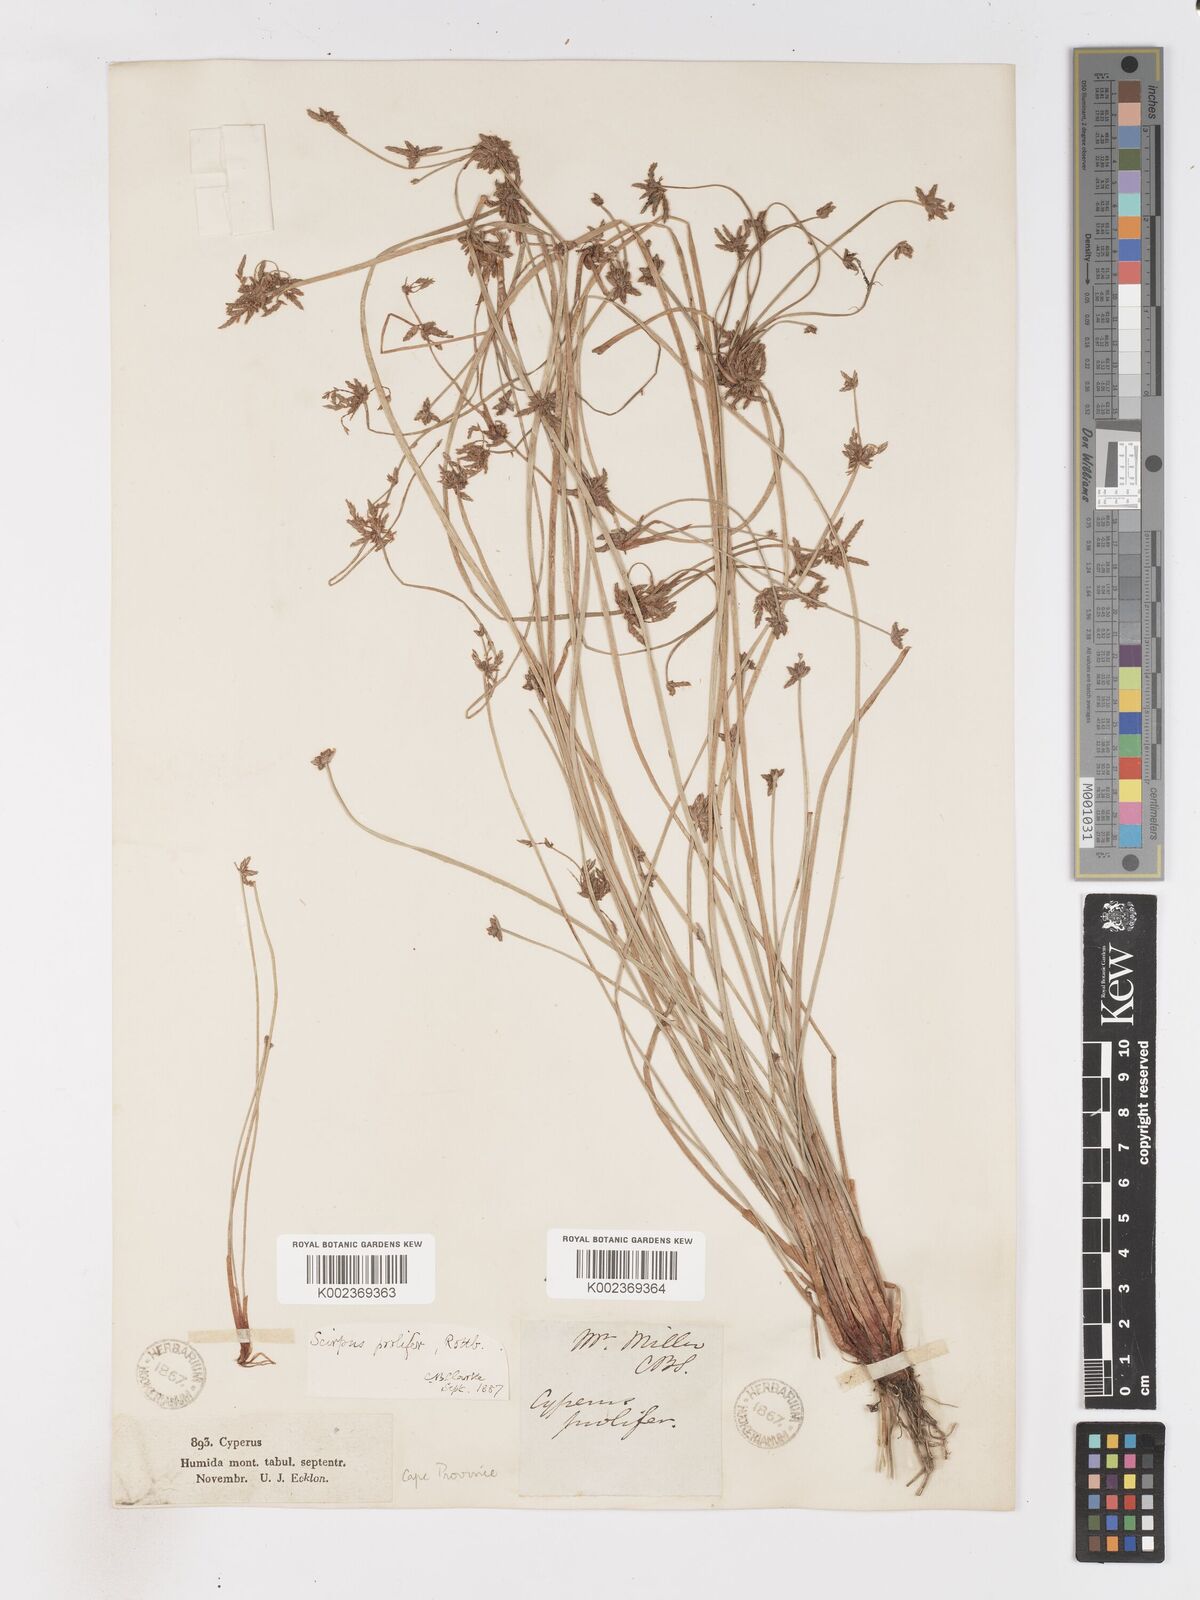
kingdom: Plantae
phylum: Tracheophyta
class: Liliopsida
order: Poales
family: Cyperaceae
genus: Isolepis
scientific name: Isolepis prolifera
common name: Proliferating bulrush
